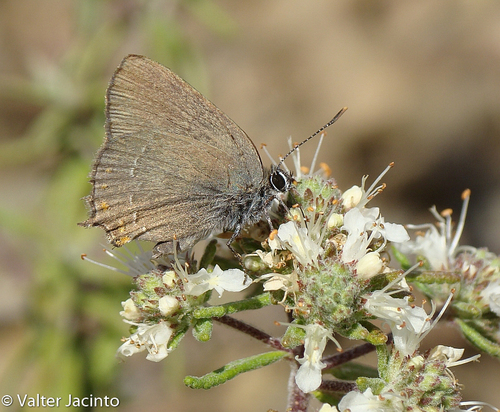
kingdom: Animalia
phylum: Arthropoda
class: Insecta
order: Lepidoptera
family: Lycaenidae
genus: Fixsenia
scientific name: Fixsenia esculi
